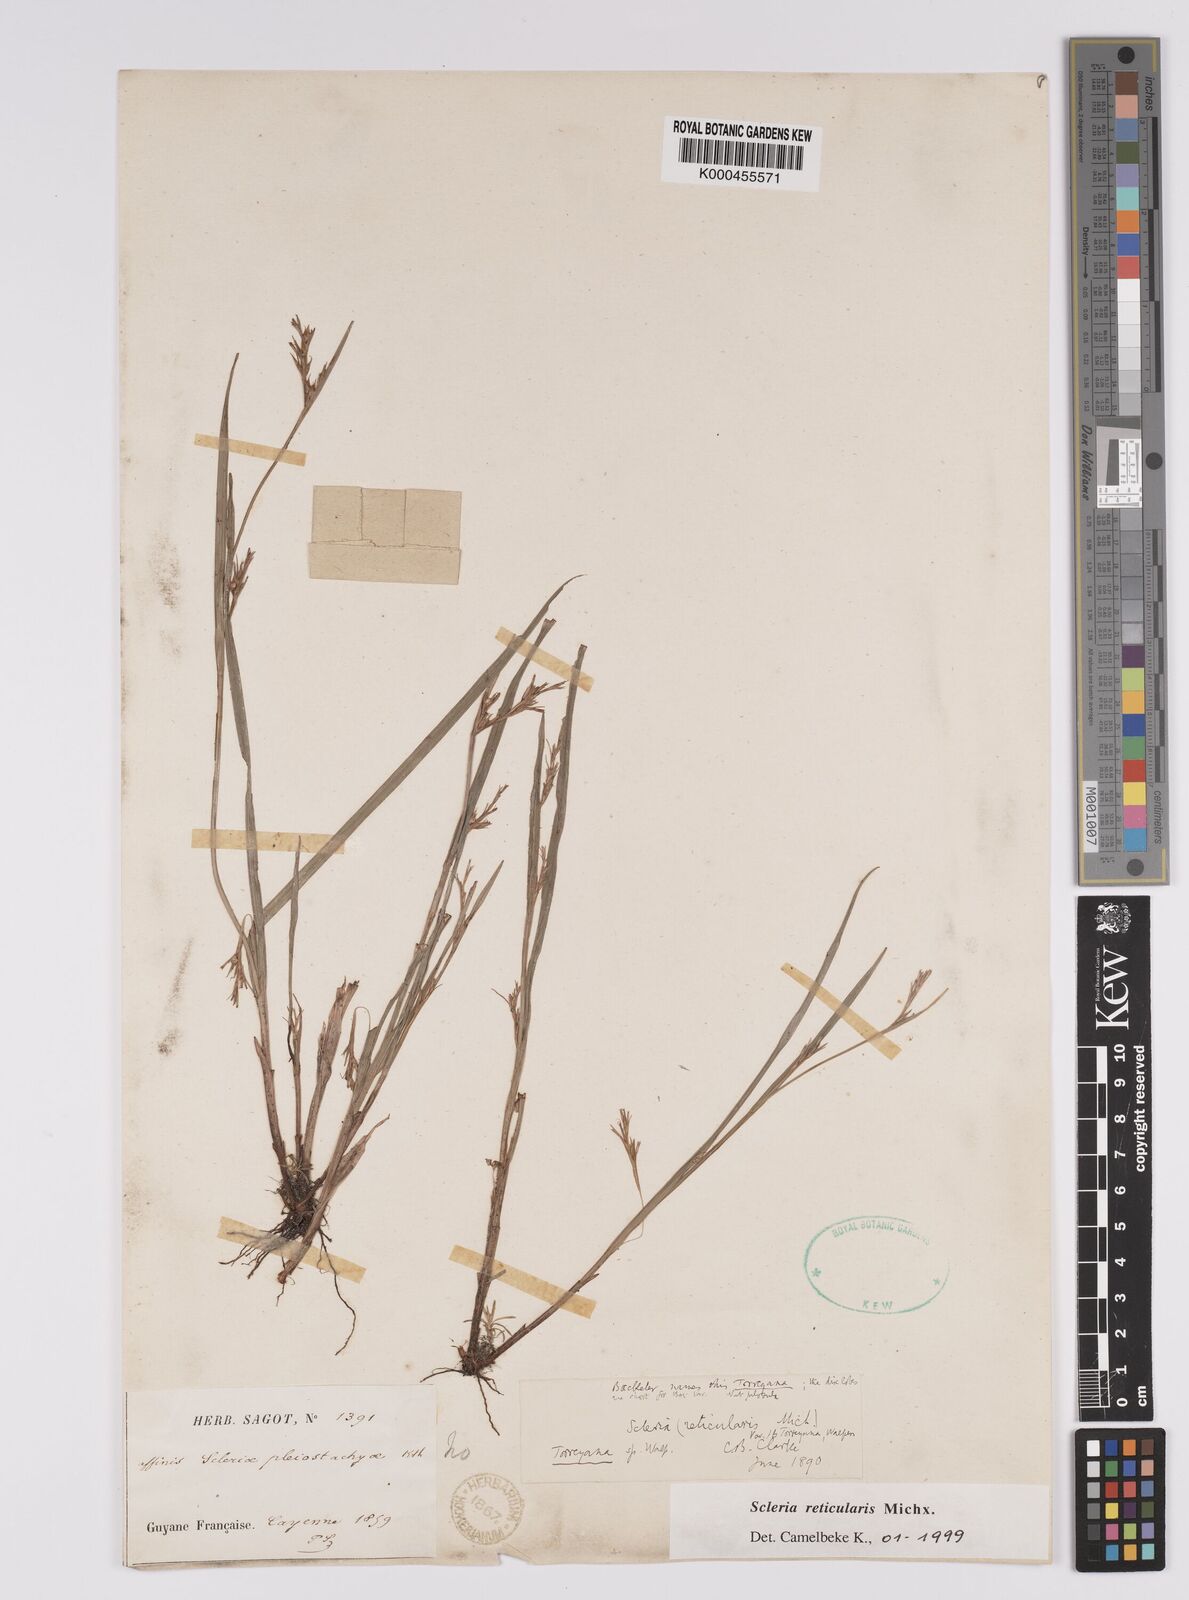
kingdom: Plantae
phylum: Tracheophyta
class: Liliopsida
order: Poales
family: Cyperaceae
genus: Scleria
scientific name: Scleria
